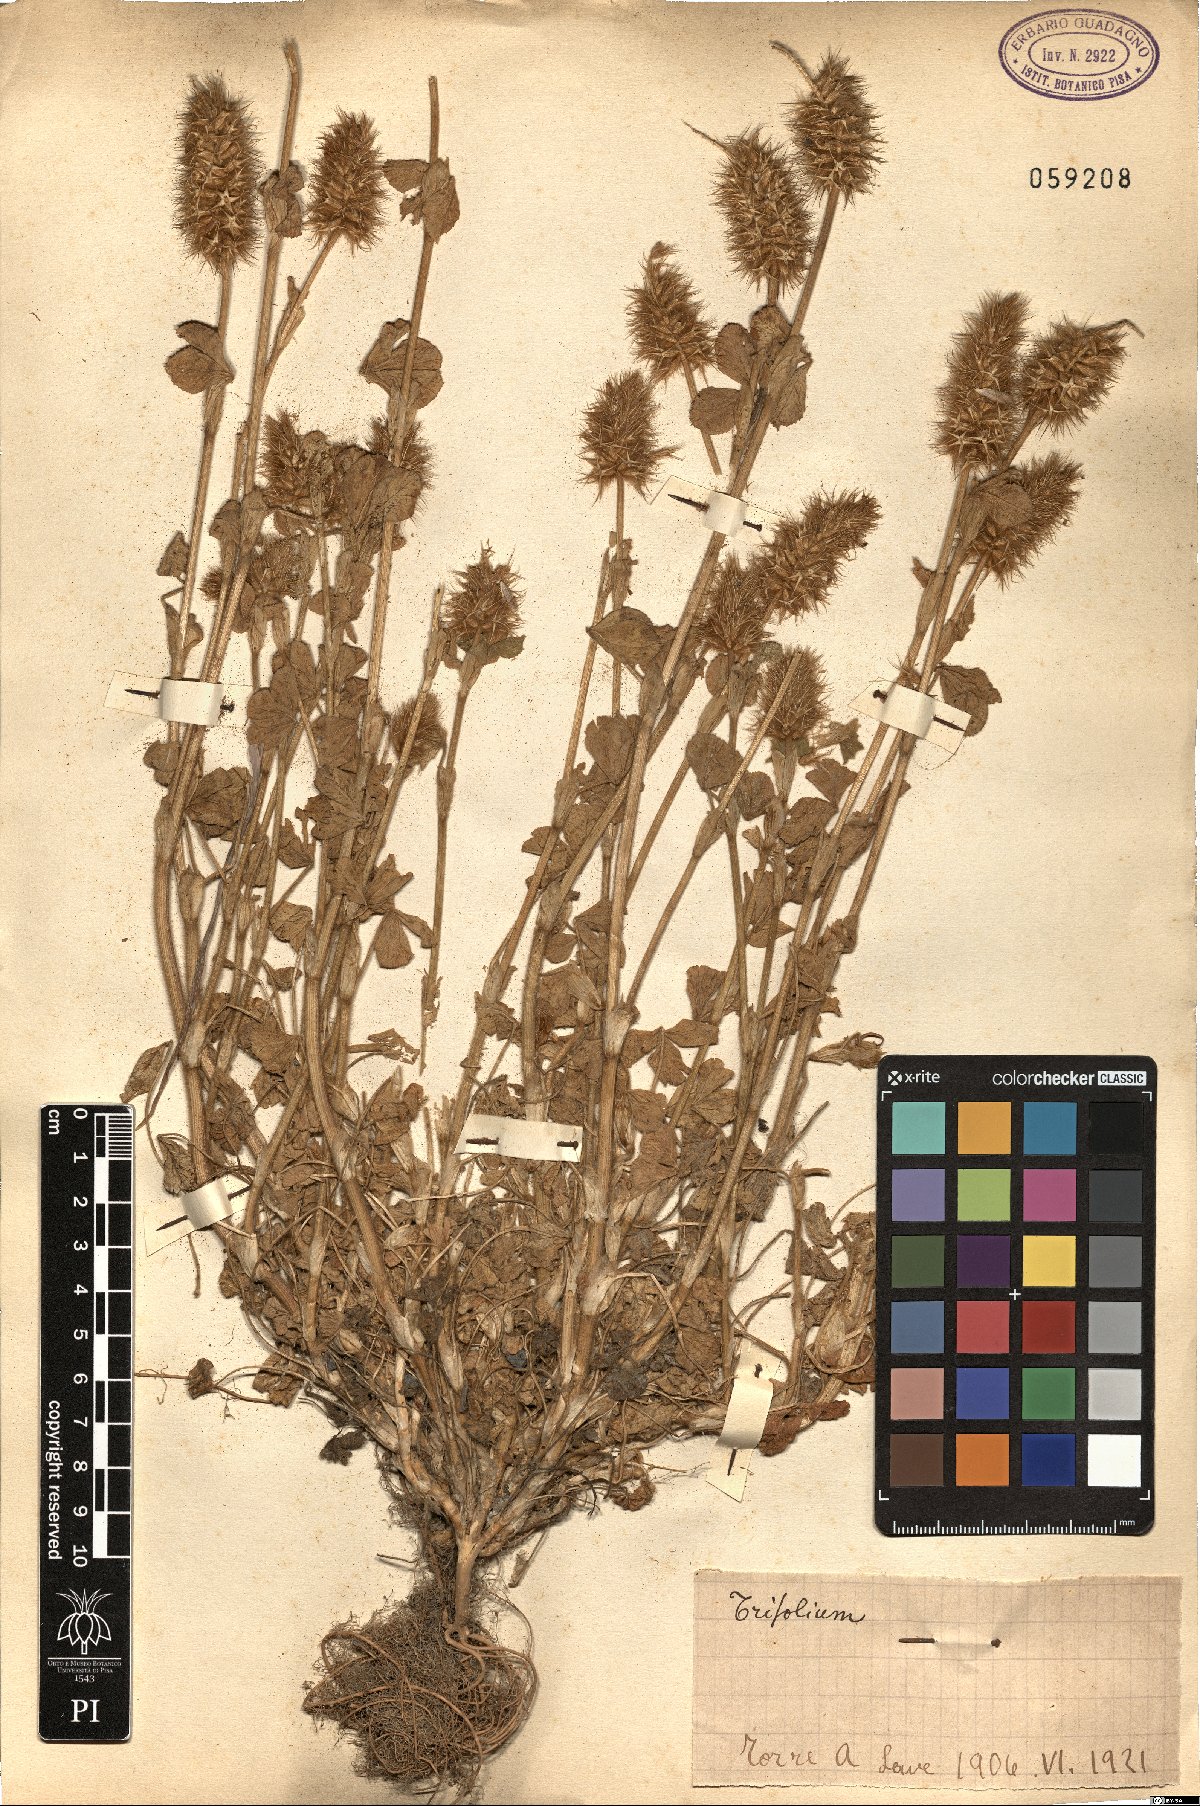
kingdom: Plantae
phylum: Tracheophyta
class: Magnoliopsida
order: Fabales
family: Fabaceae
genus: Trifolium
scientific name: Trifolium
